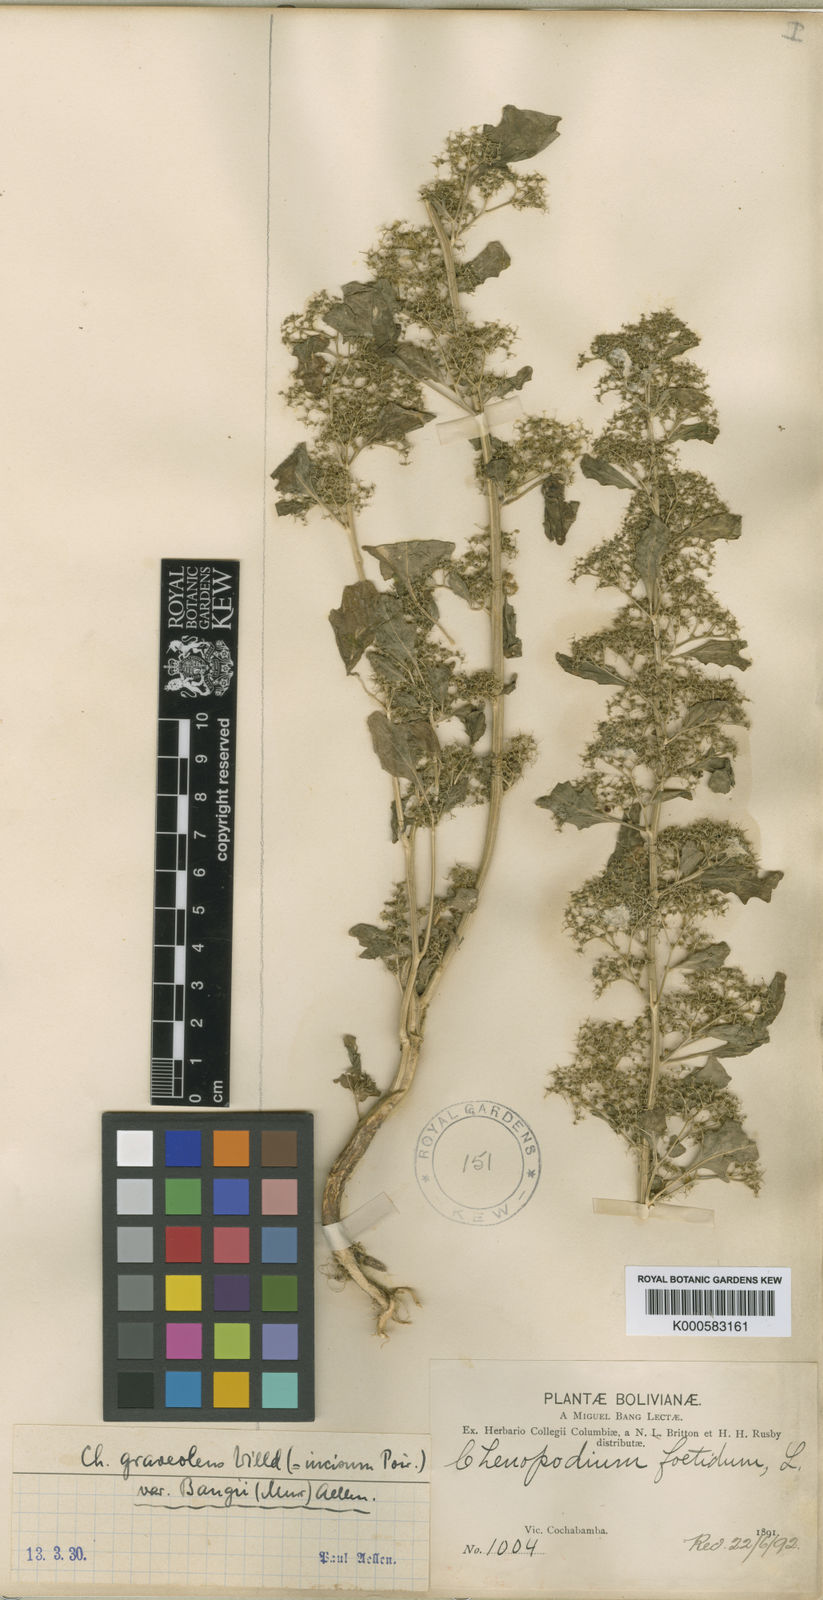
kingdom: Plantae
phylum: Tracheophyta
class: Magnoliopsida
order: Caryophyllales
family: Amaranthaceae
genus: Dysphania
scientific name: Dysphania graveolens
